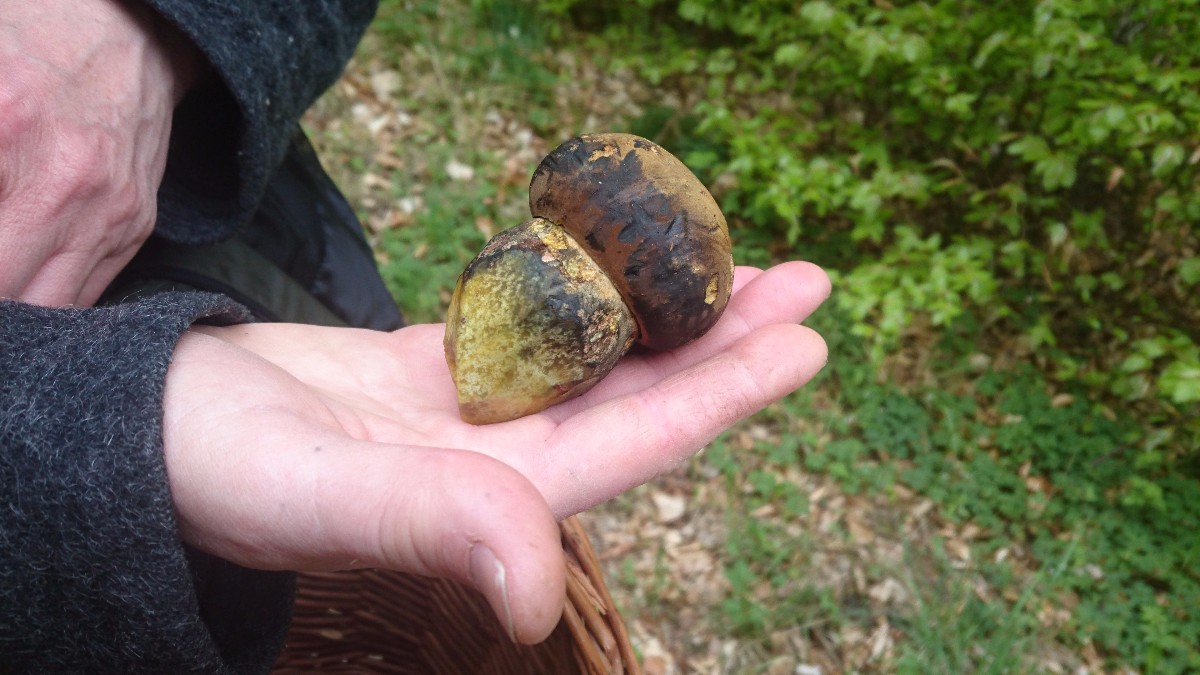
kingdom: Fungi
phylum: Basidiomycota
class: Agaricomycetes
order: Boletales
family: Boletaceae
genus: Neoboletus
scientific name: Neoboletus erythropus
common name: punktstokket indigorørhat
